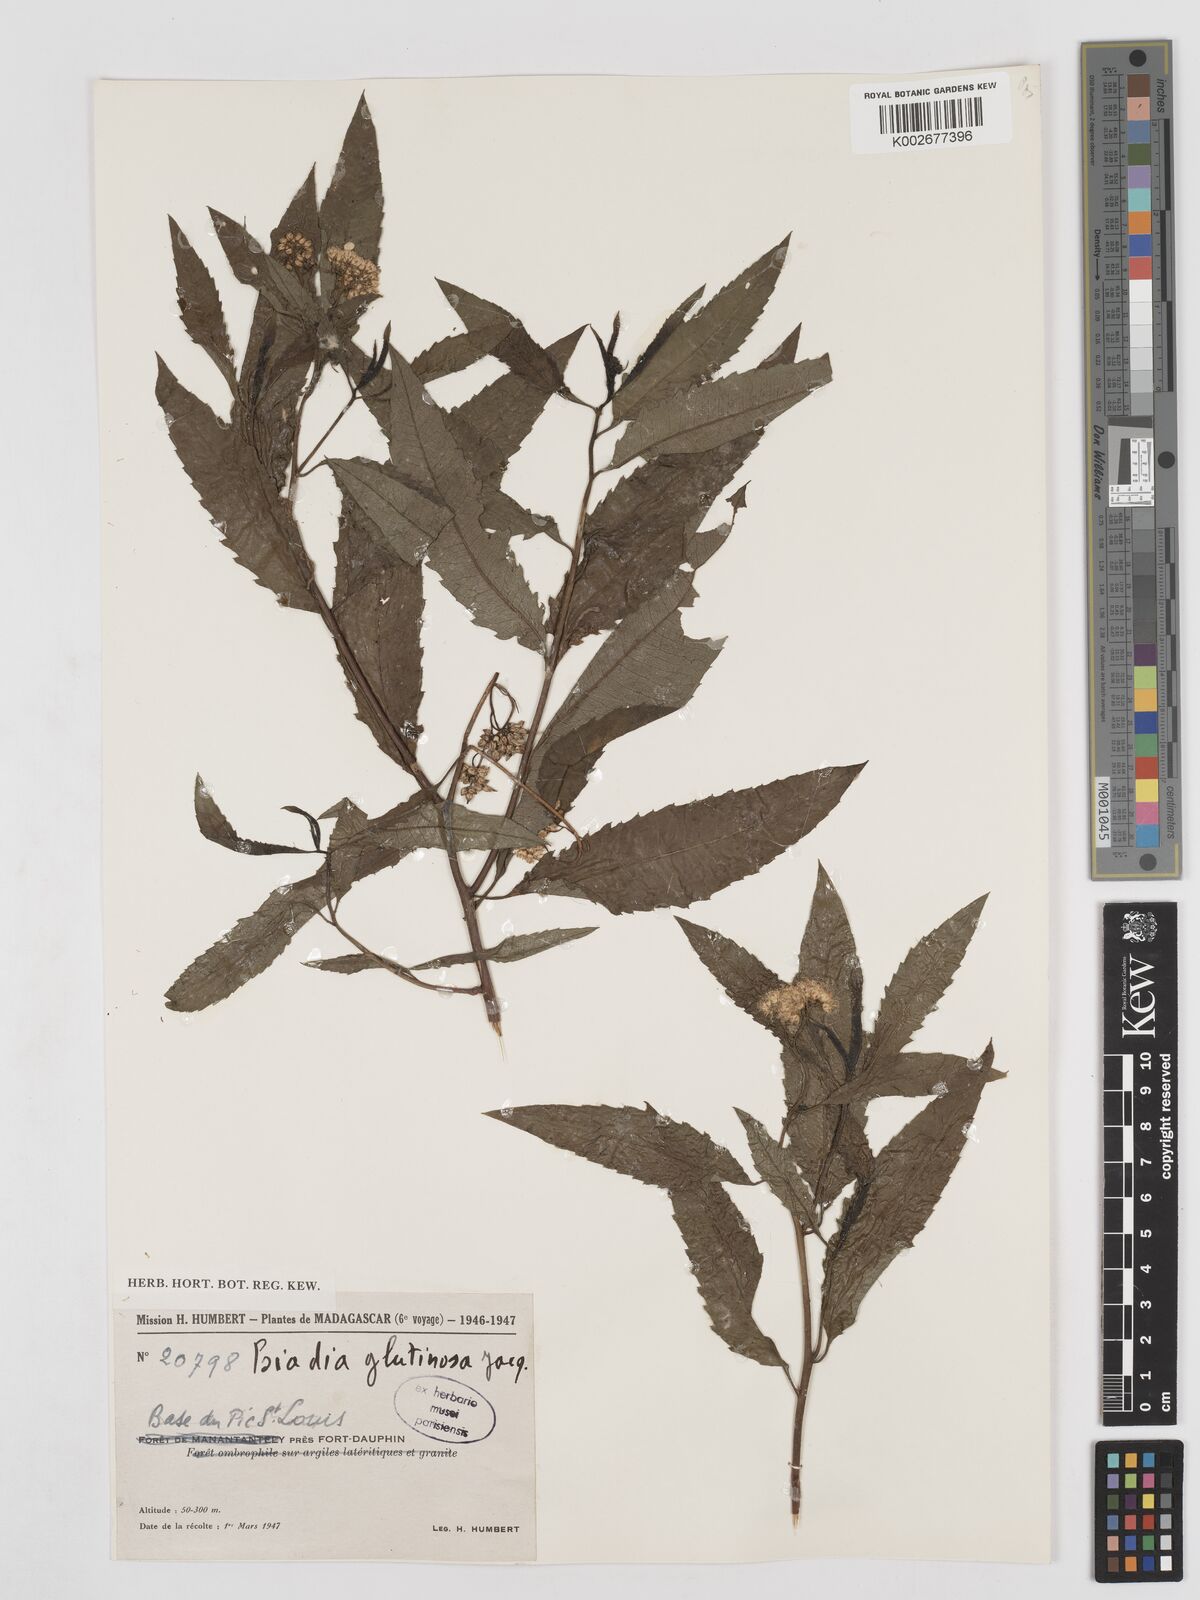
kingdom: Plantae
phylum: Tracheophyta
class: Magnoliopsida
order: Asterales
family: Asteraceae
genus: Psiadia
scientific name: Psiadia glutinosa
